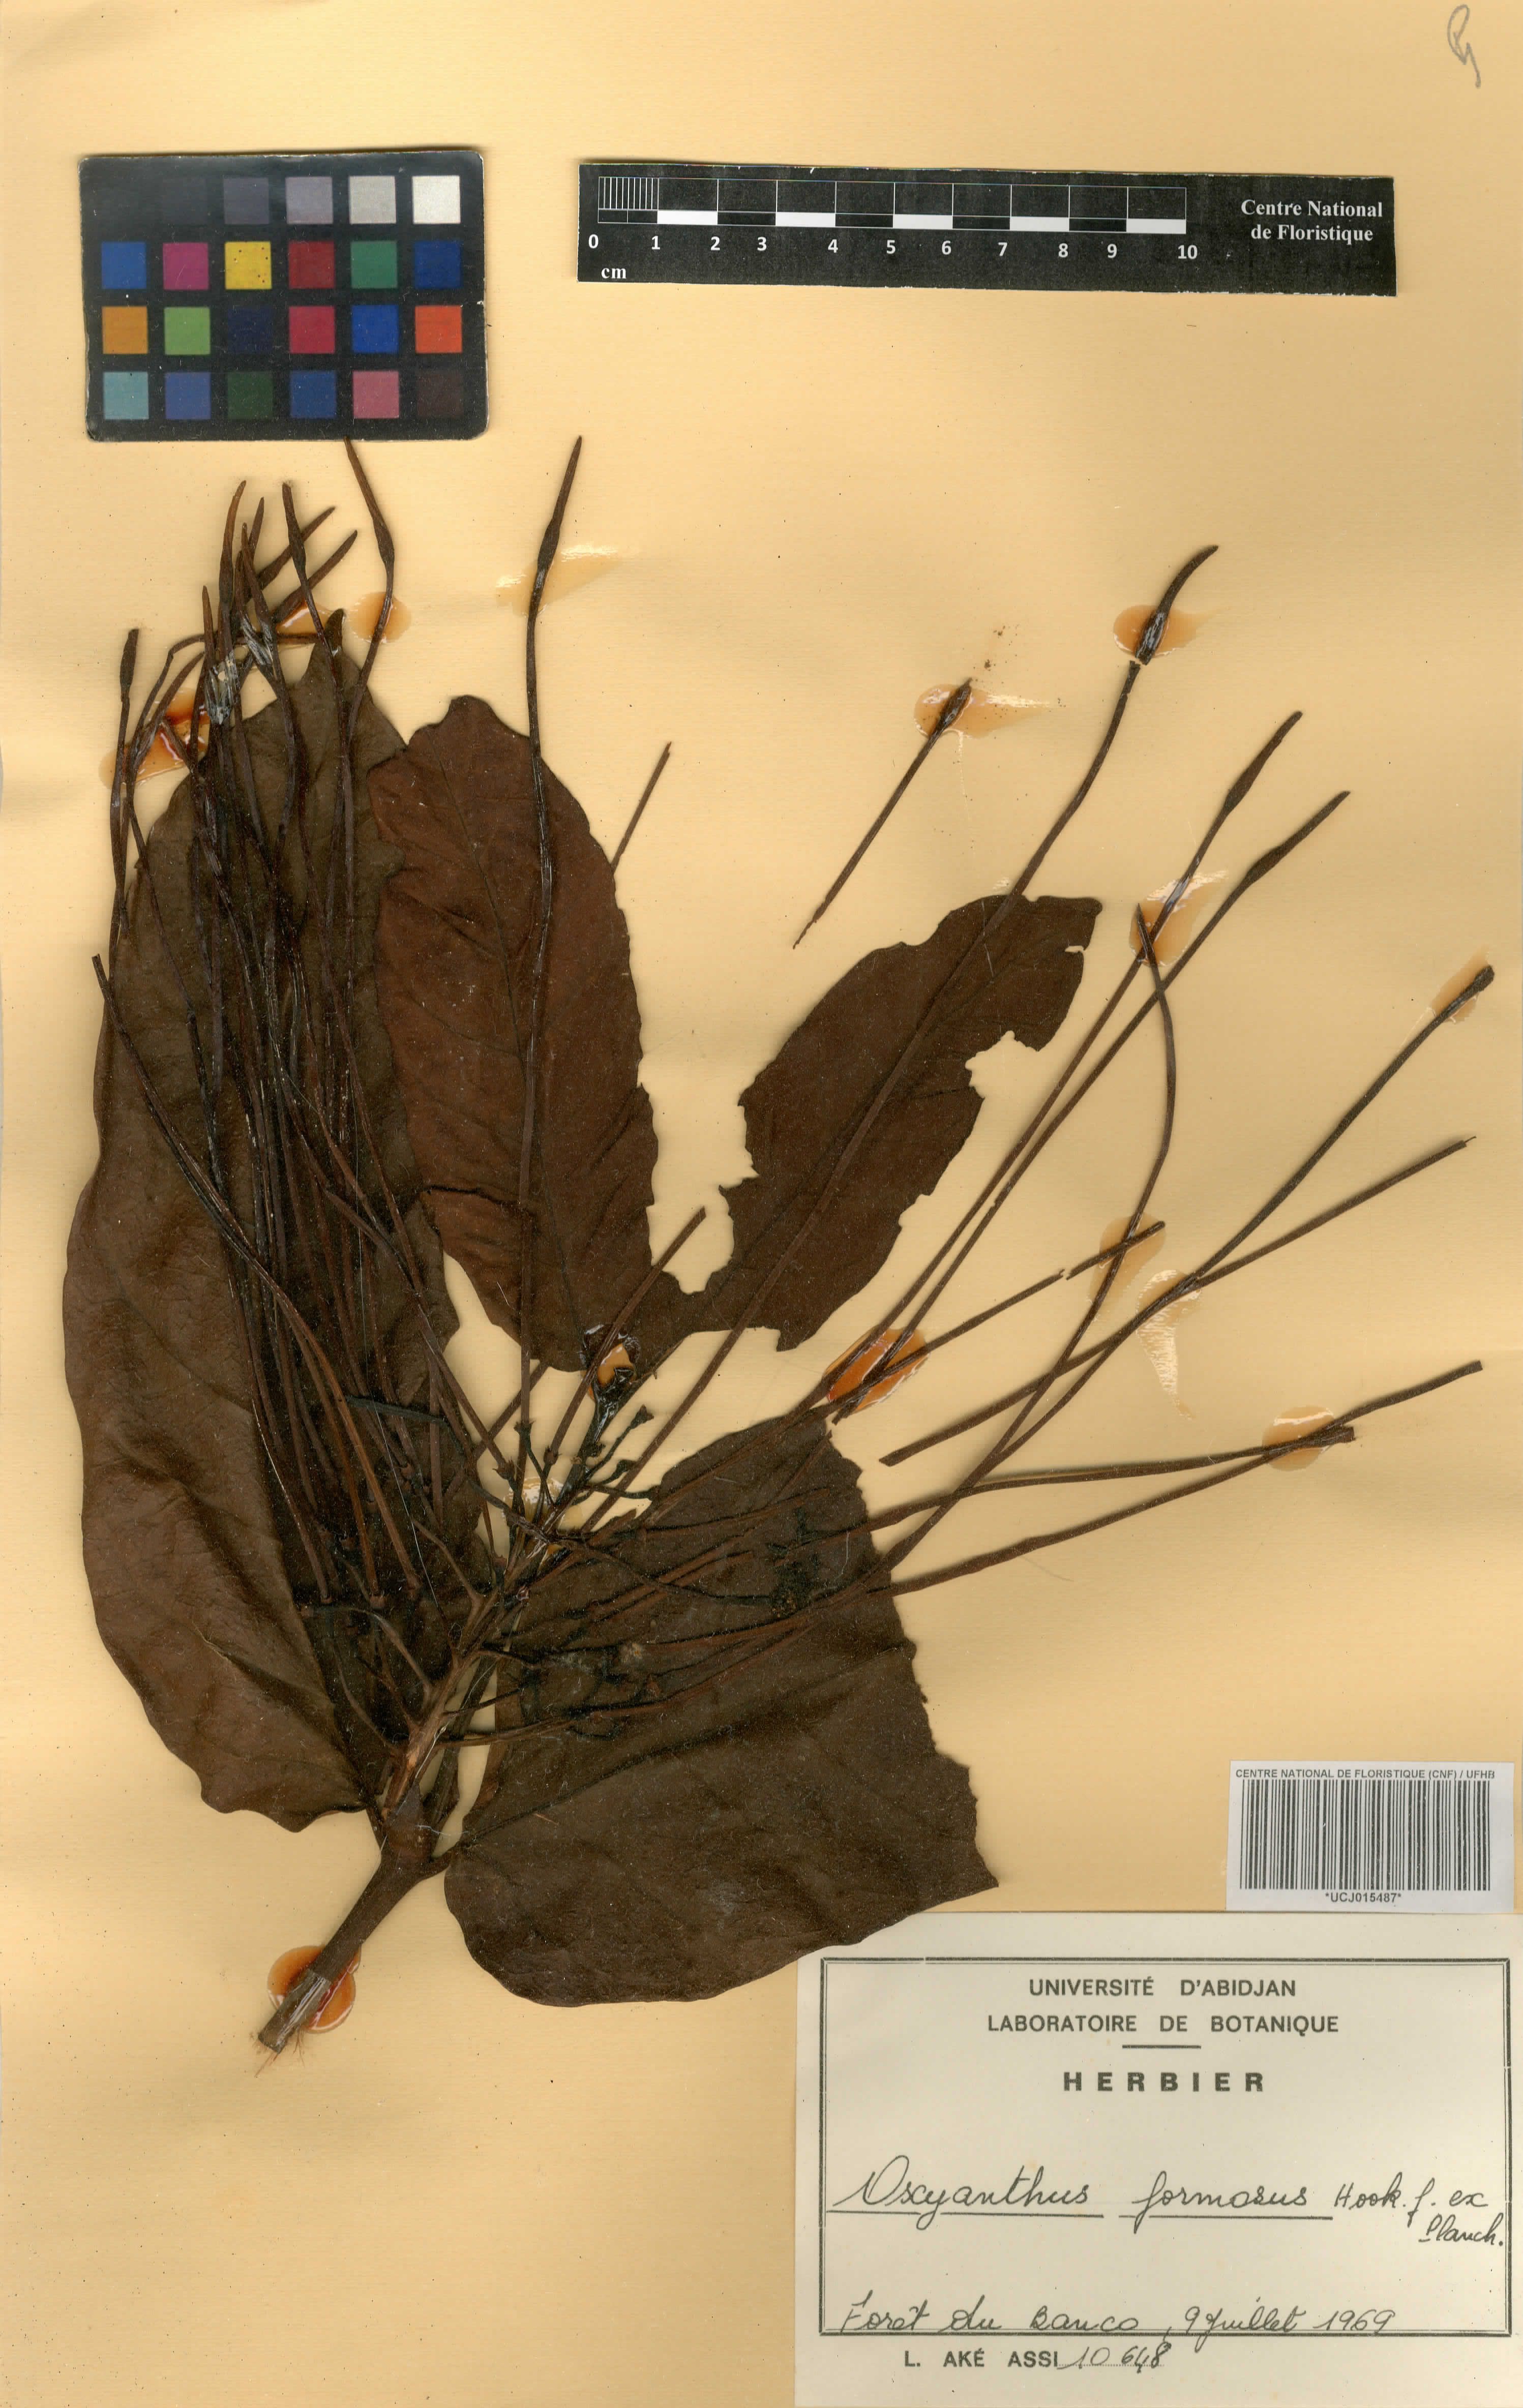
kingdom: Plantae
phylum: Tracheophyta
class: Magnoliopsida
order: Gentianales
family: Rubiaceae
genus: Oxyanthus
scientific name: Oxyanthus formosus
